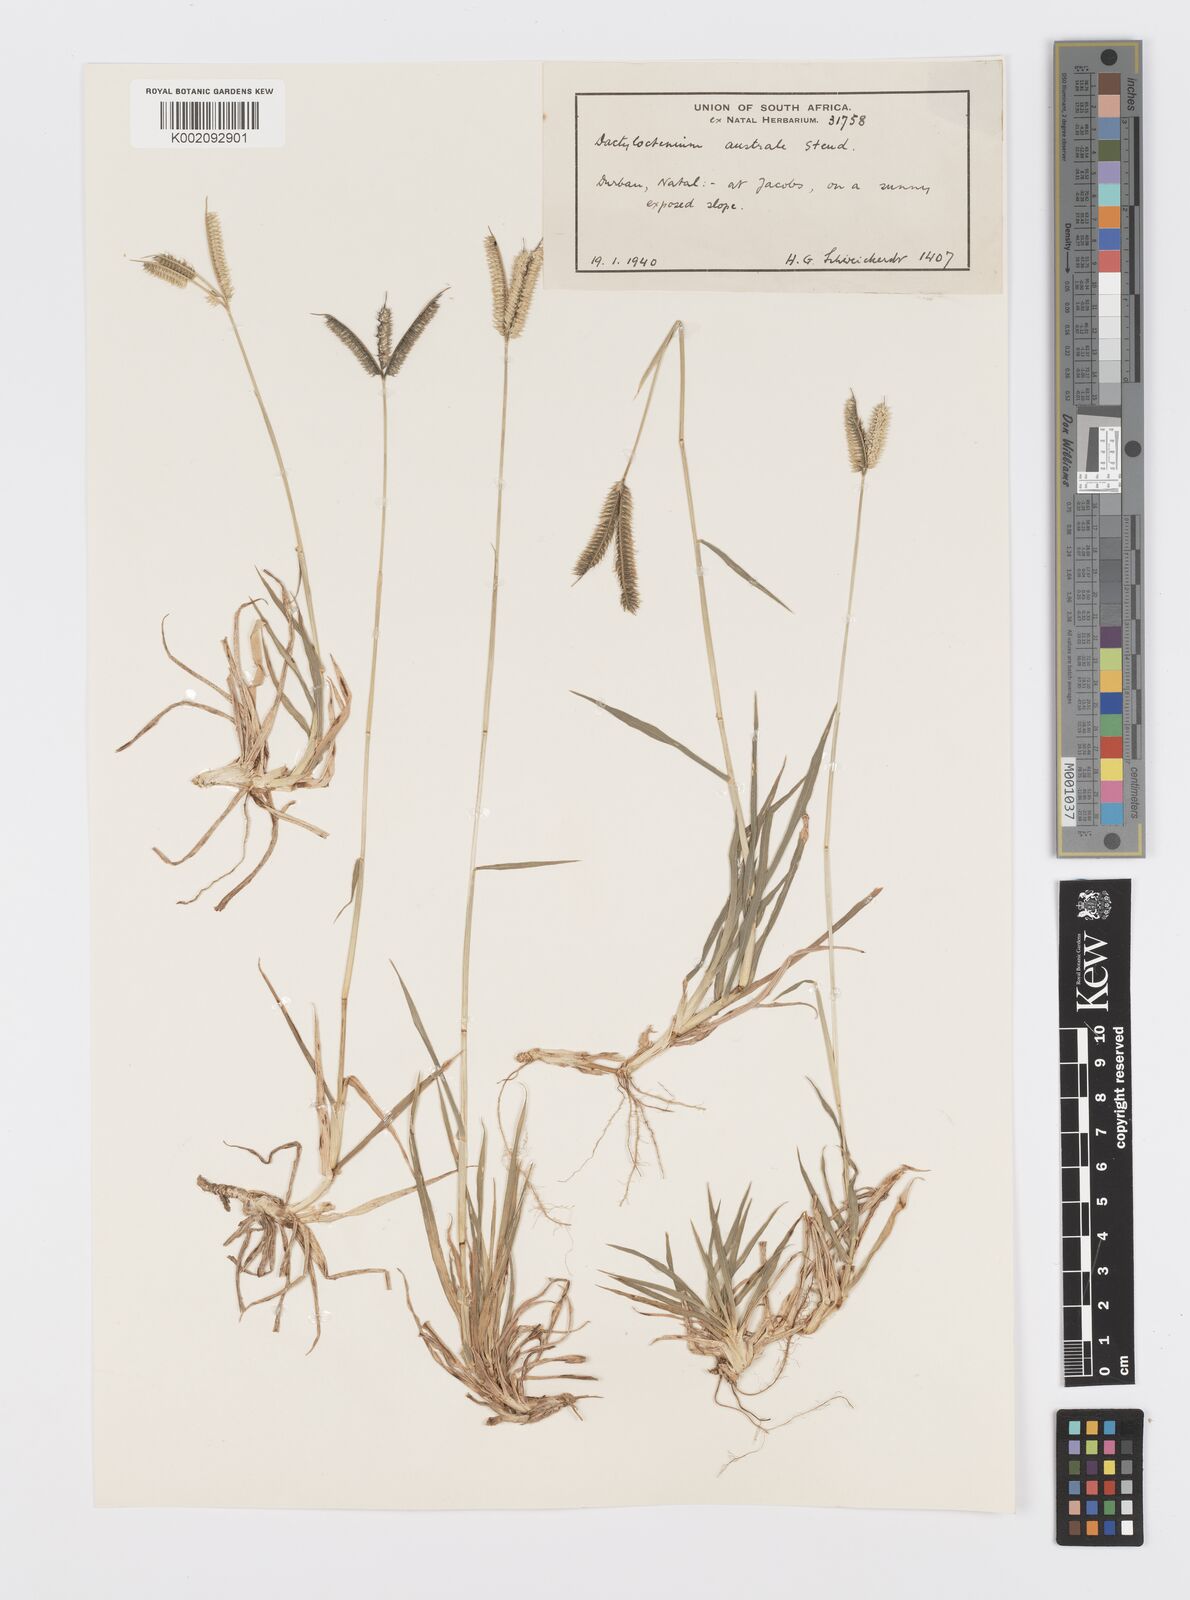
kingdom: Plantae
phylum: Tracheophyta
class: Liliopsida
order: Poales
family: Poaceae
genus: Dactyloctenium
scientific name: Dactyloctenium australe
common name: Durban grass
